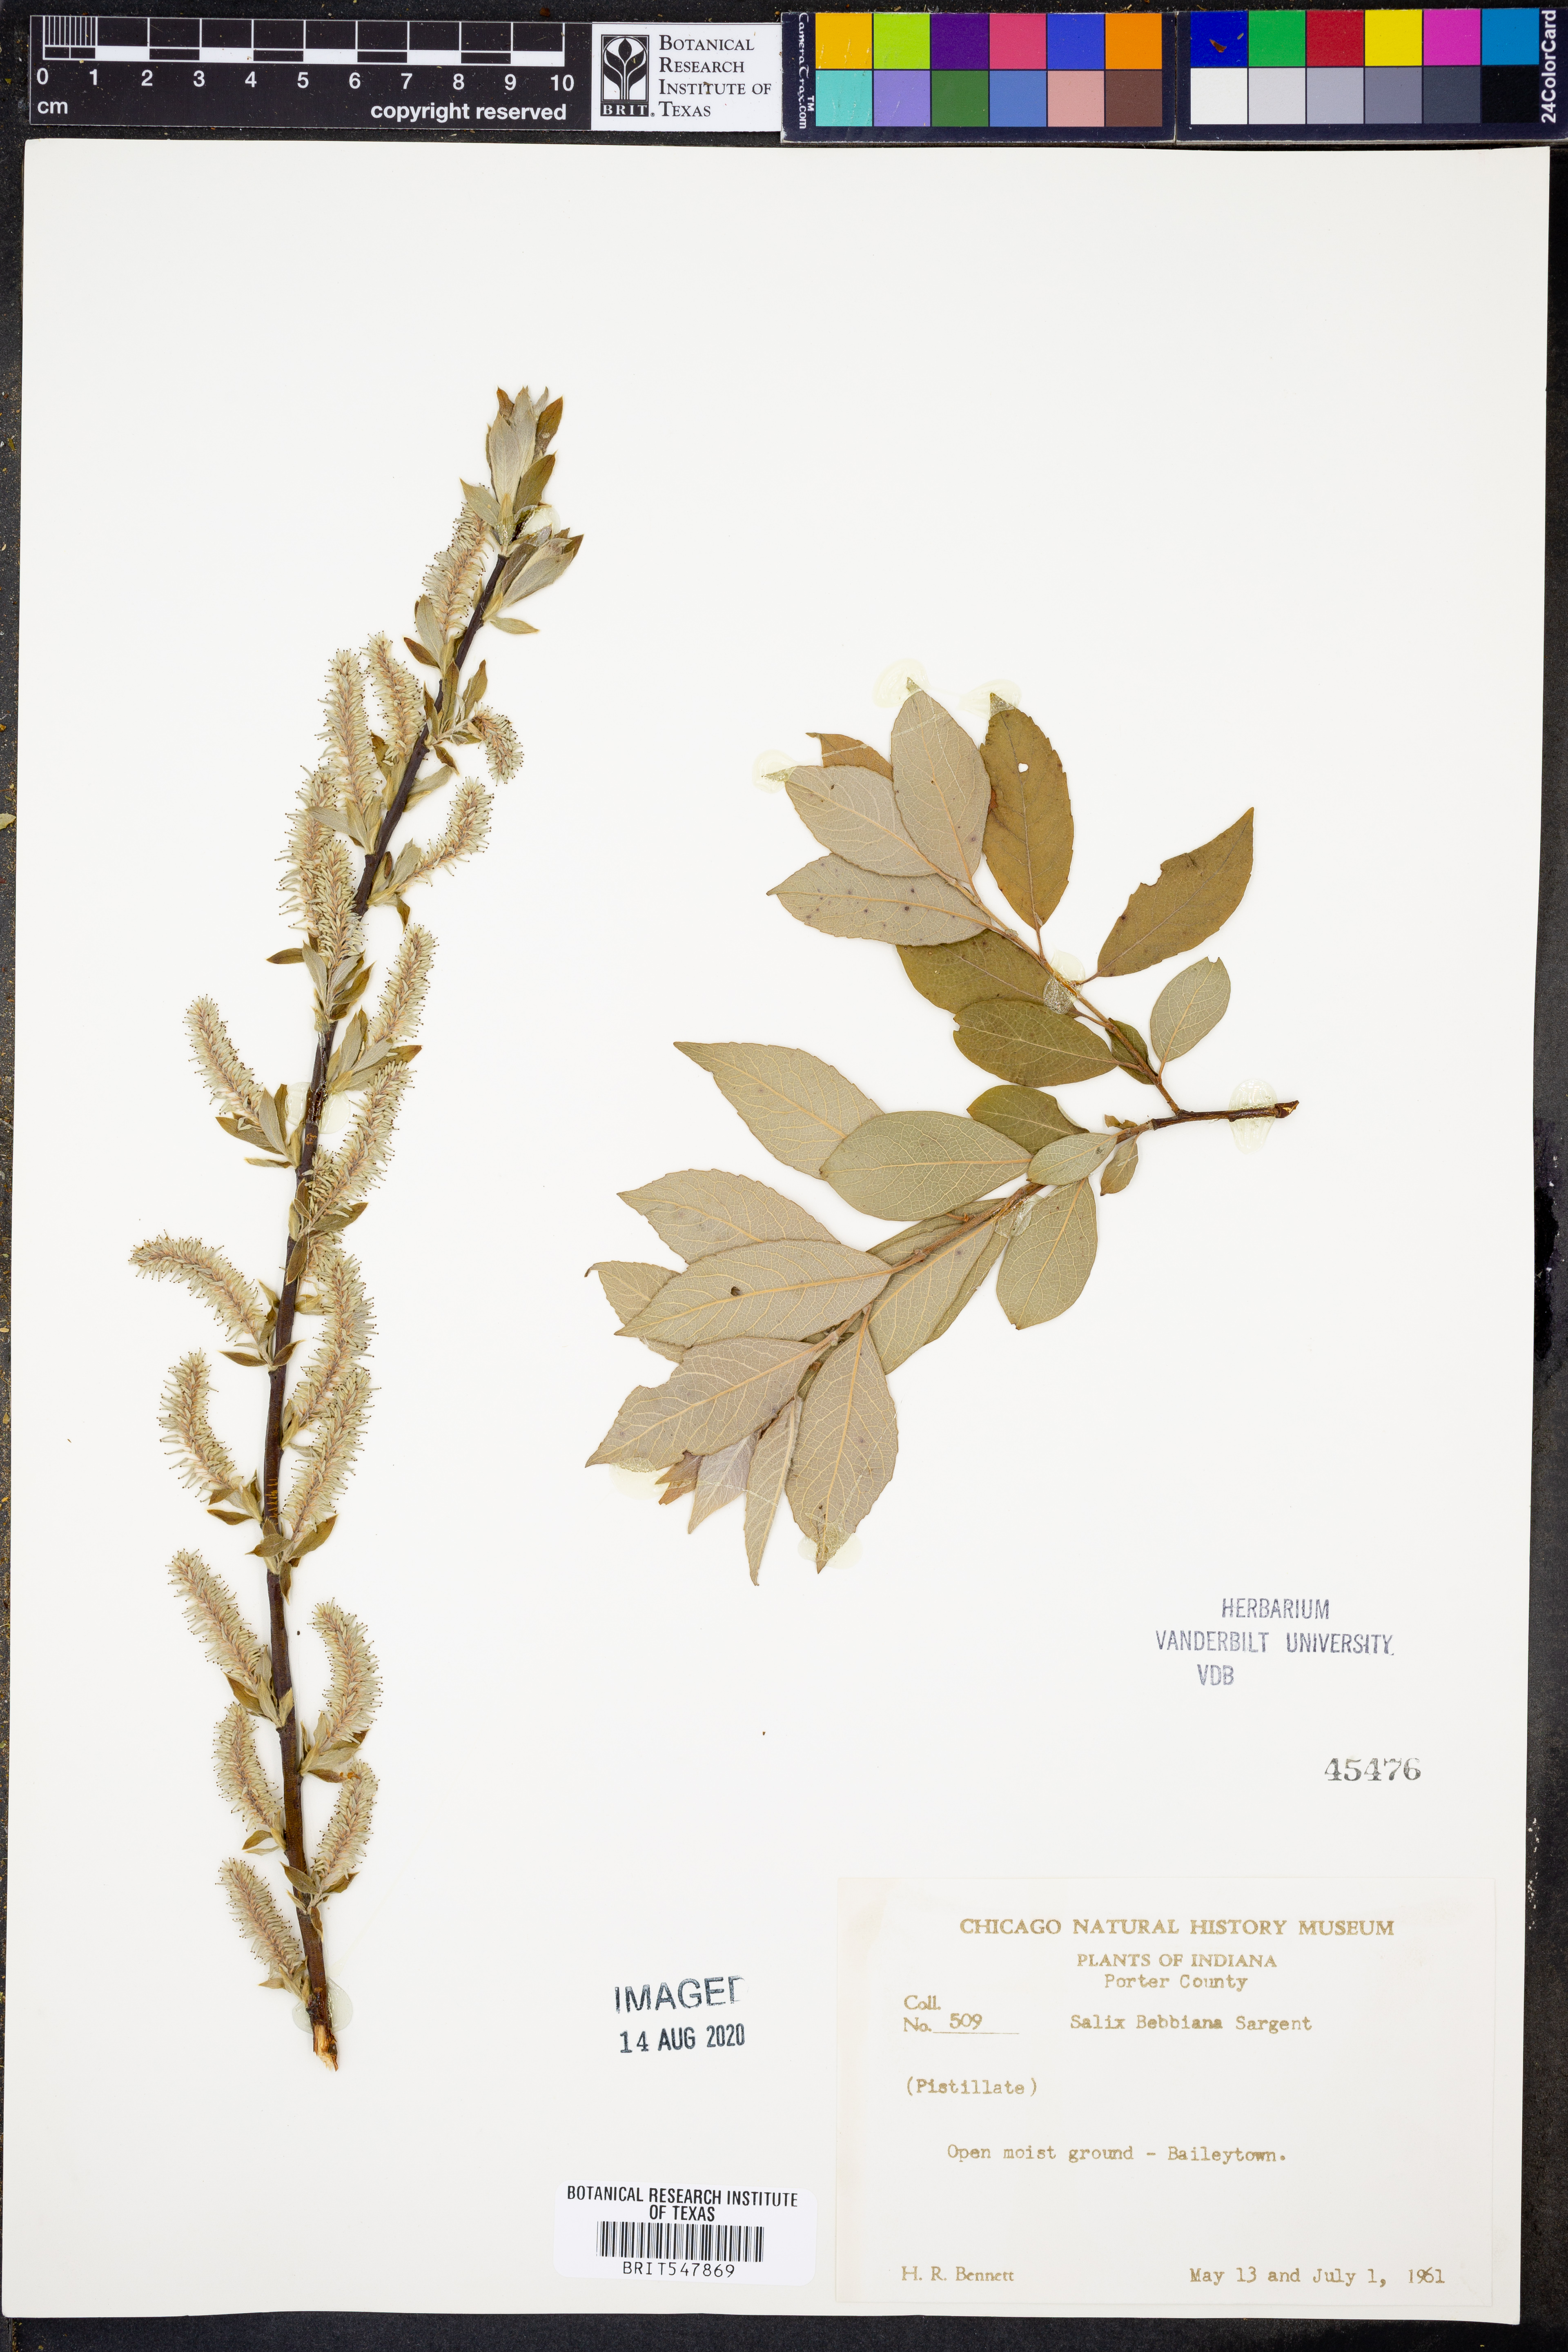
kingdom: Plantae
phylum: Tracheophyta
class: Magnoliopsida
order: Malpighiales
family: Salicaceae
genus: Salix
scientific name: Salix bebbiana
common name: Bebb's willow
